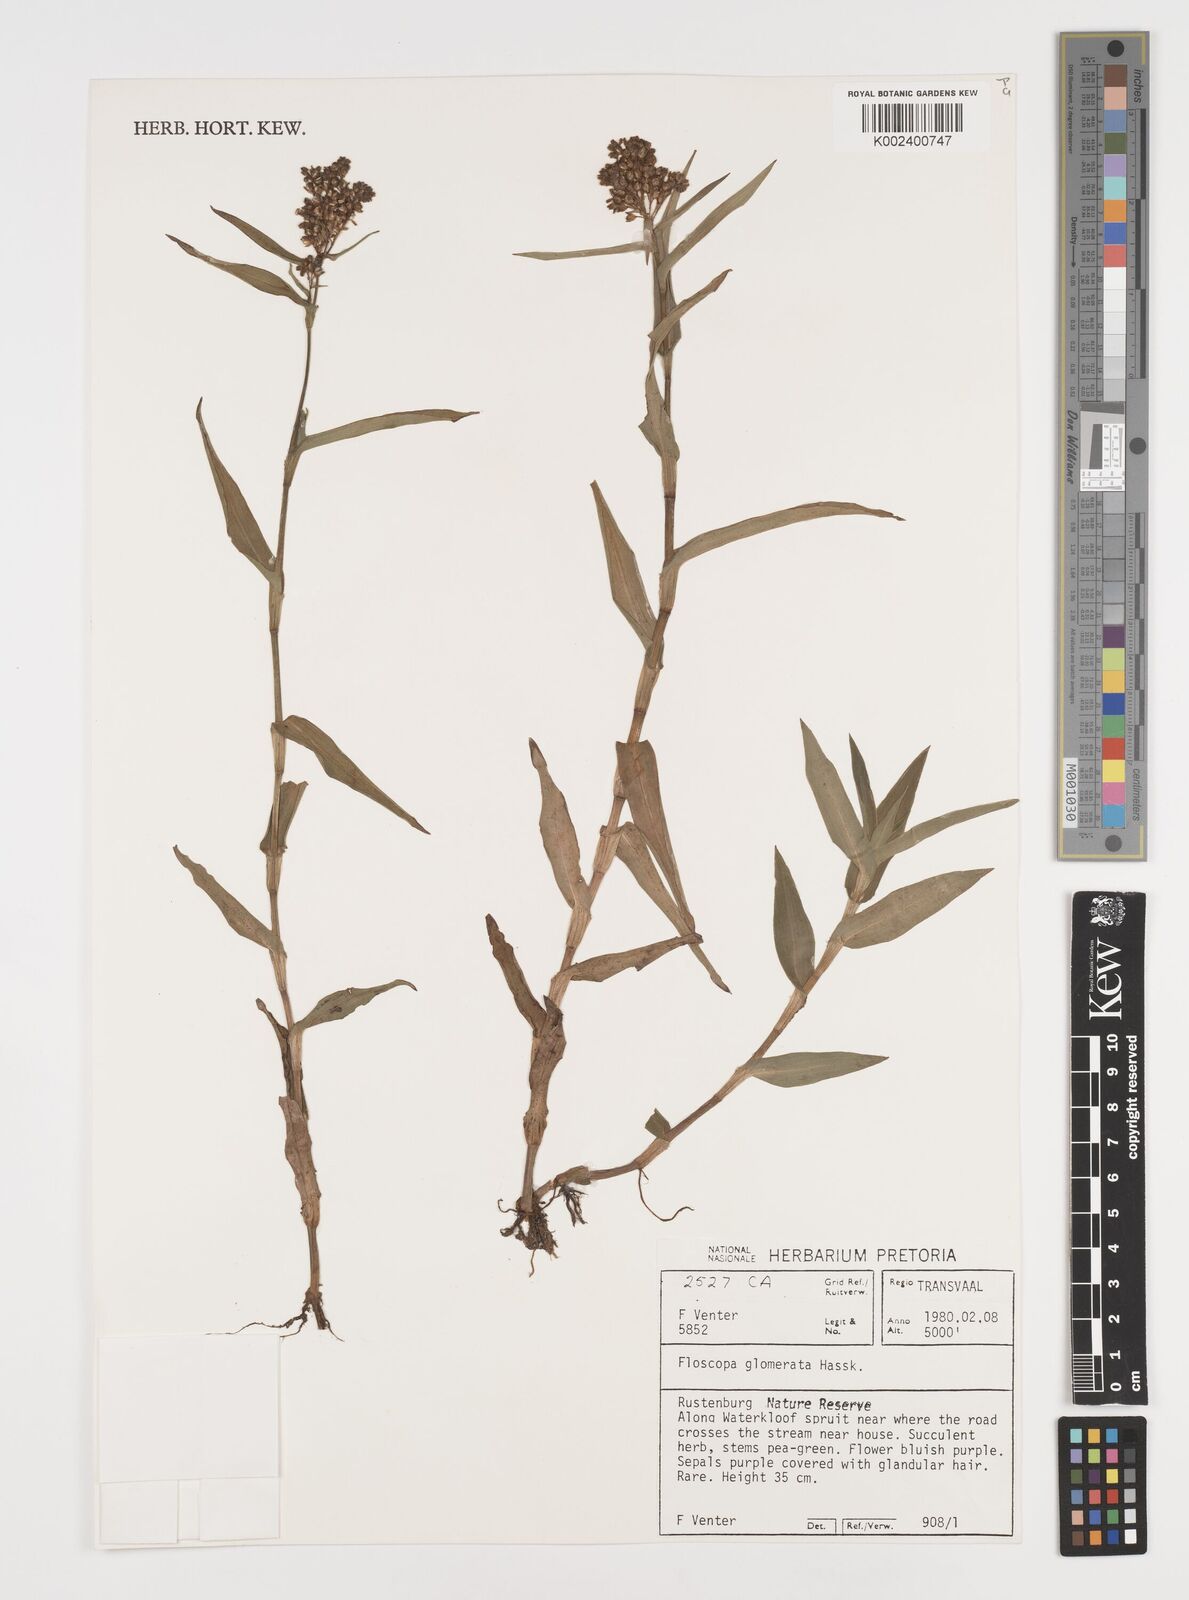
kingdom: Plantae
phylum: Tracheophyta
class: Liliopsida
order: Commelinales
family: Commelinaceae
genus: Floscopa
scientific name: Floscopa glomerata
